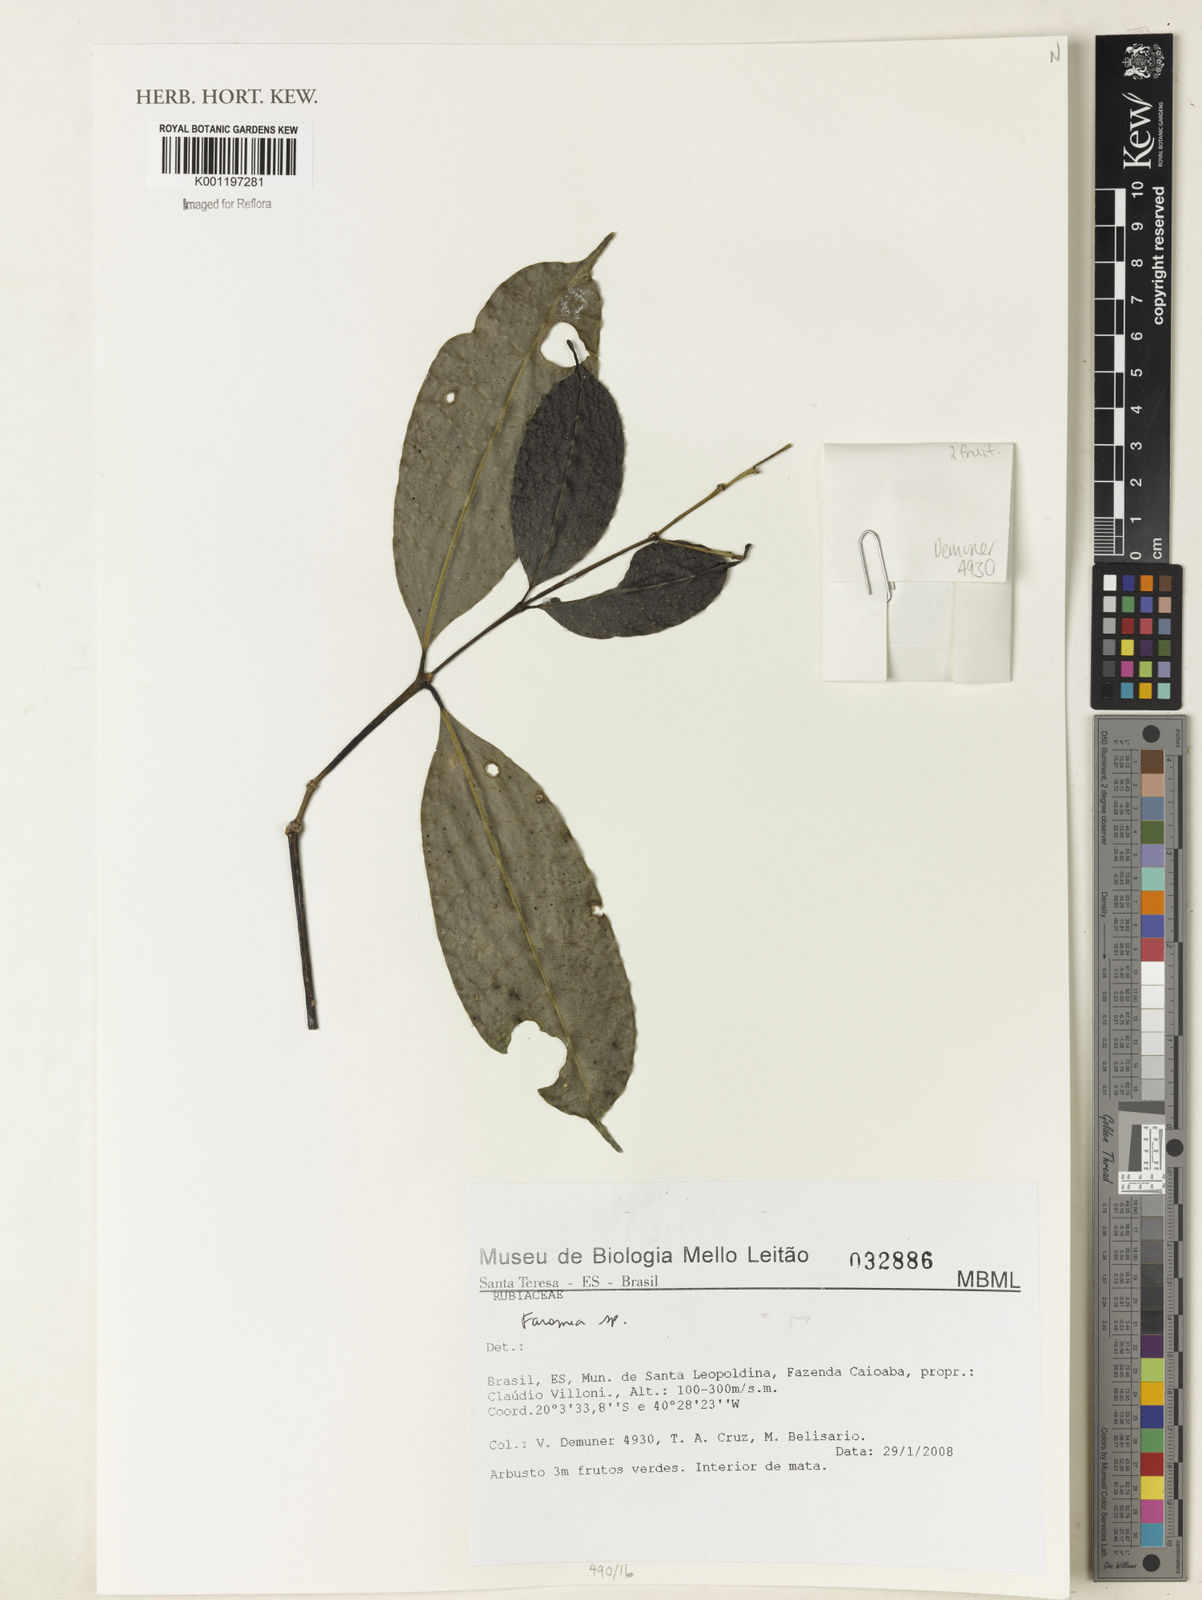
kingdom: Plantae
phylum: Tracheophyta
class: Magnoliopsida
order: Gentianales
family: Rubiaceae
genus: Faramea
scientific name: Faramea
